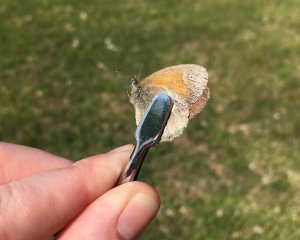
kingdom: Animalia
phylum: Arthropoda
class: Insecta
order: Lepidoptera
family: Nymphalidae
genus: Coenonympha
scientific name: Coenonympha tullia
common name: Large Heath
